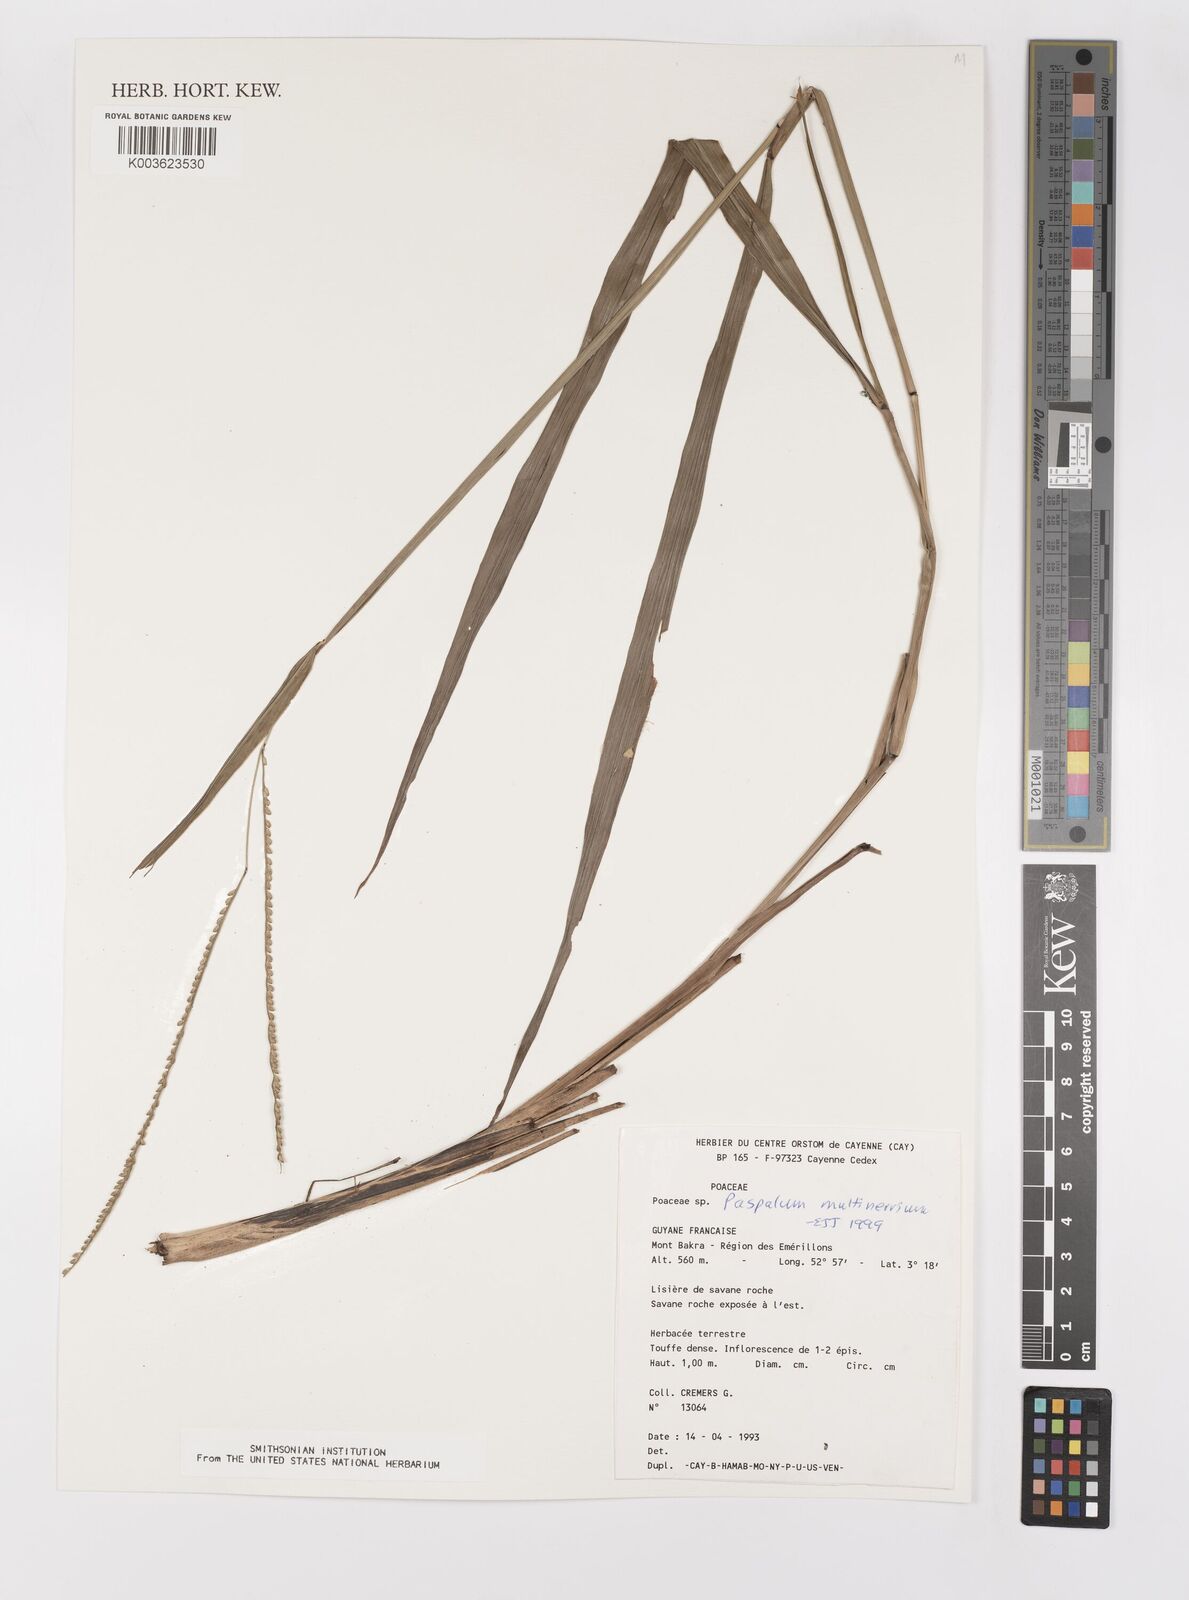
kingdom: Plantae
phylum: Tracheophyta
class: Liliopsida
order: Poales
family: Poaceae
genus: Paspalum
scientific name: Paspalum cinerascens
